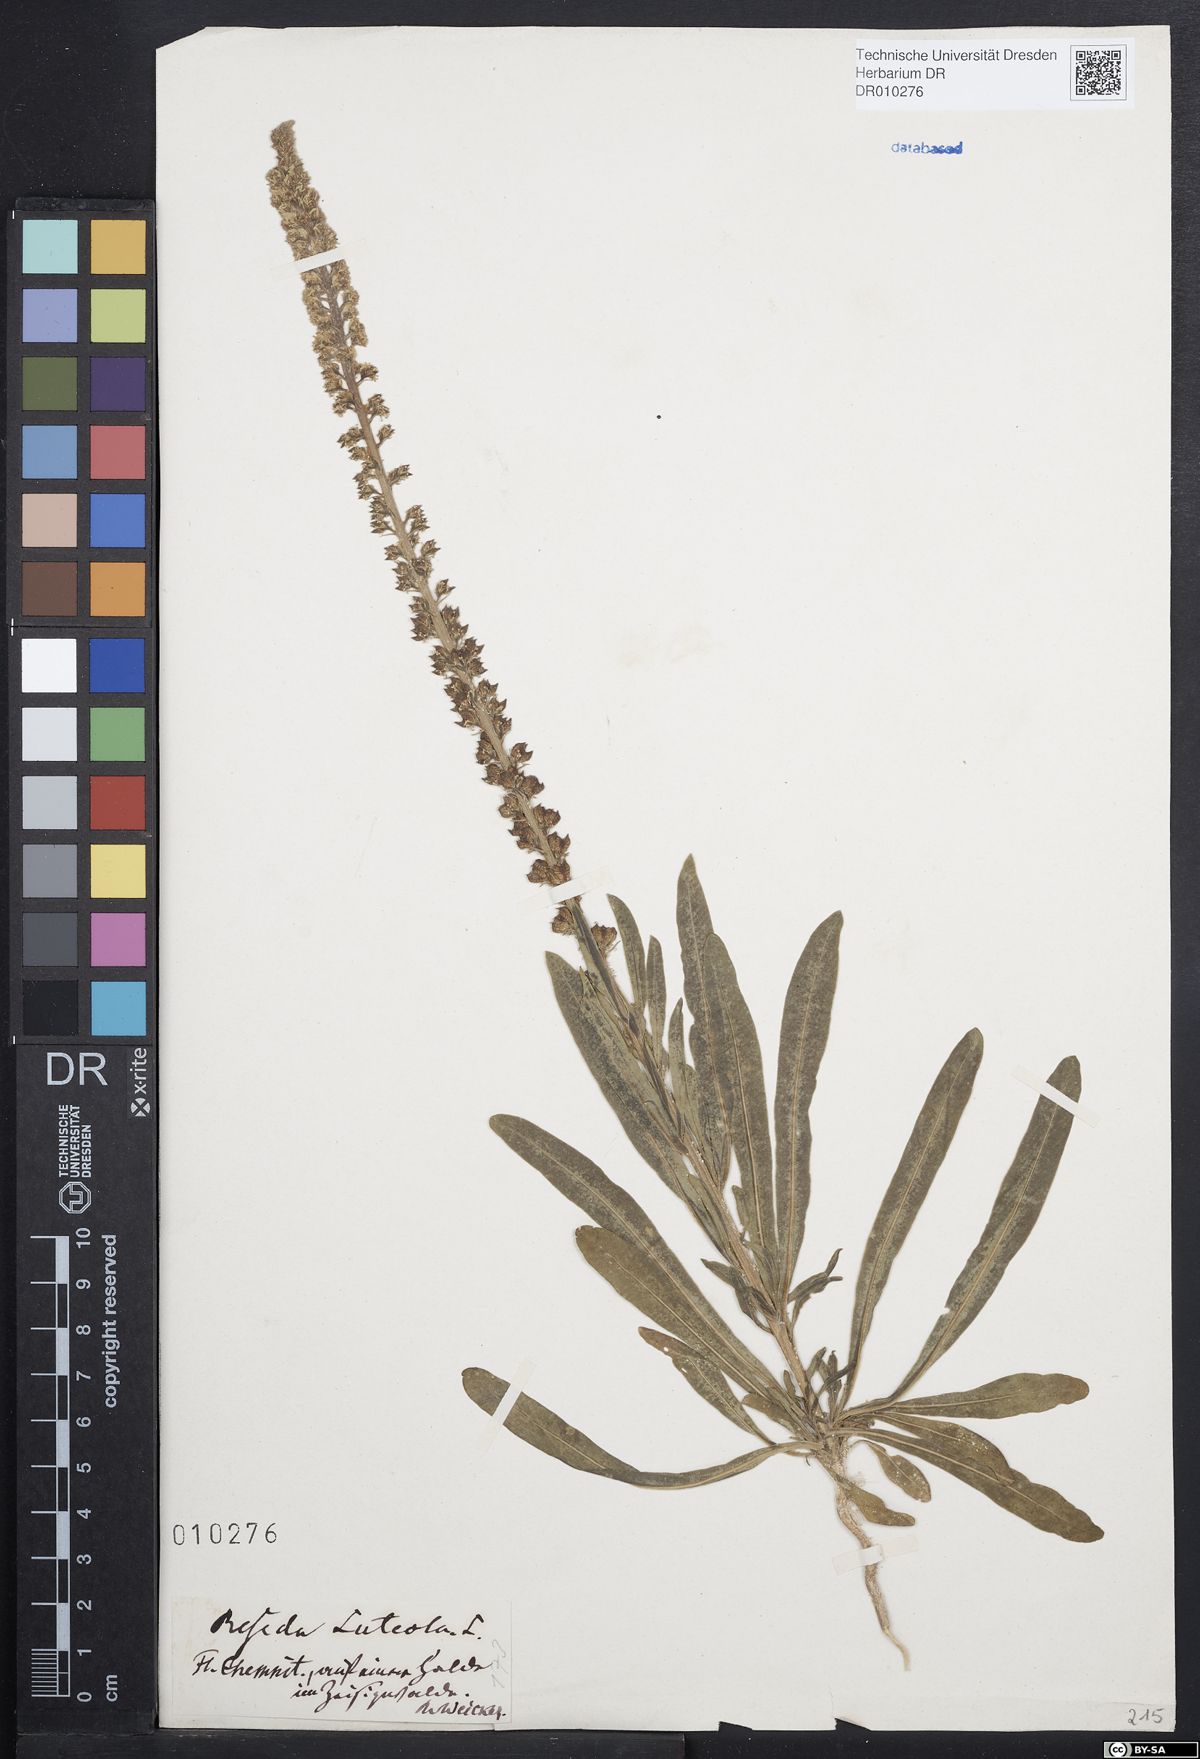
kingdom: Plantae
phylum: Tracheophyta
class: Magnoliopsida
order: Brassicales
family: Resedaceae
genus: Reseda
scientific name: Reseda luteola
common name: Weld
